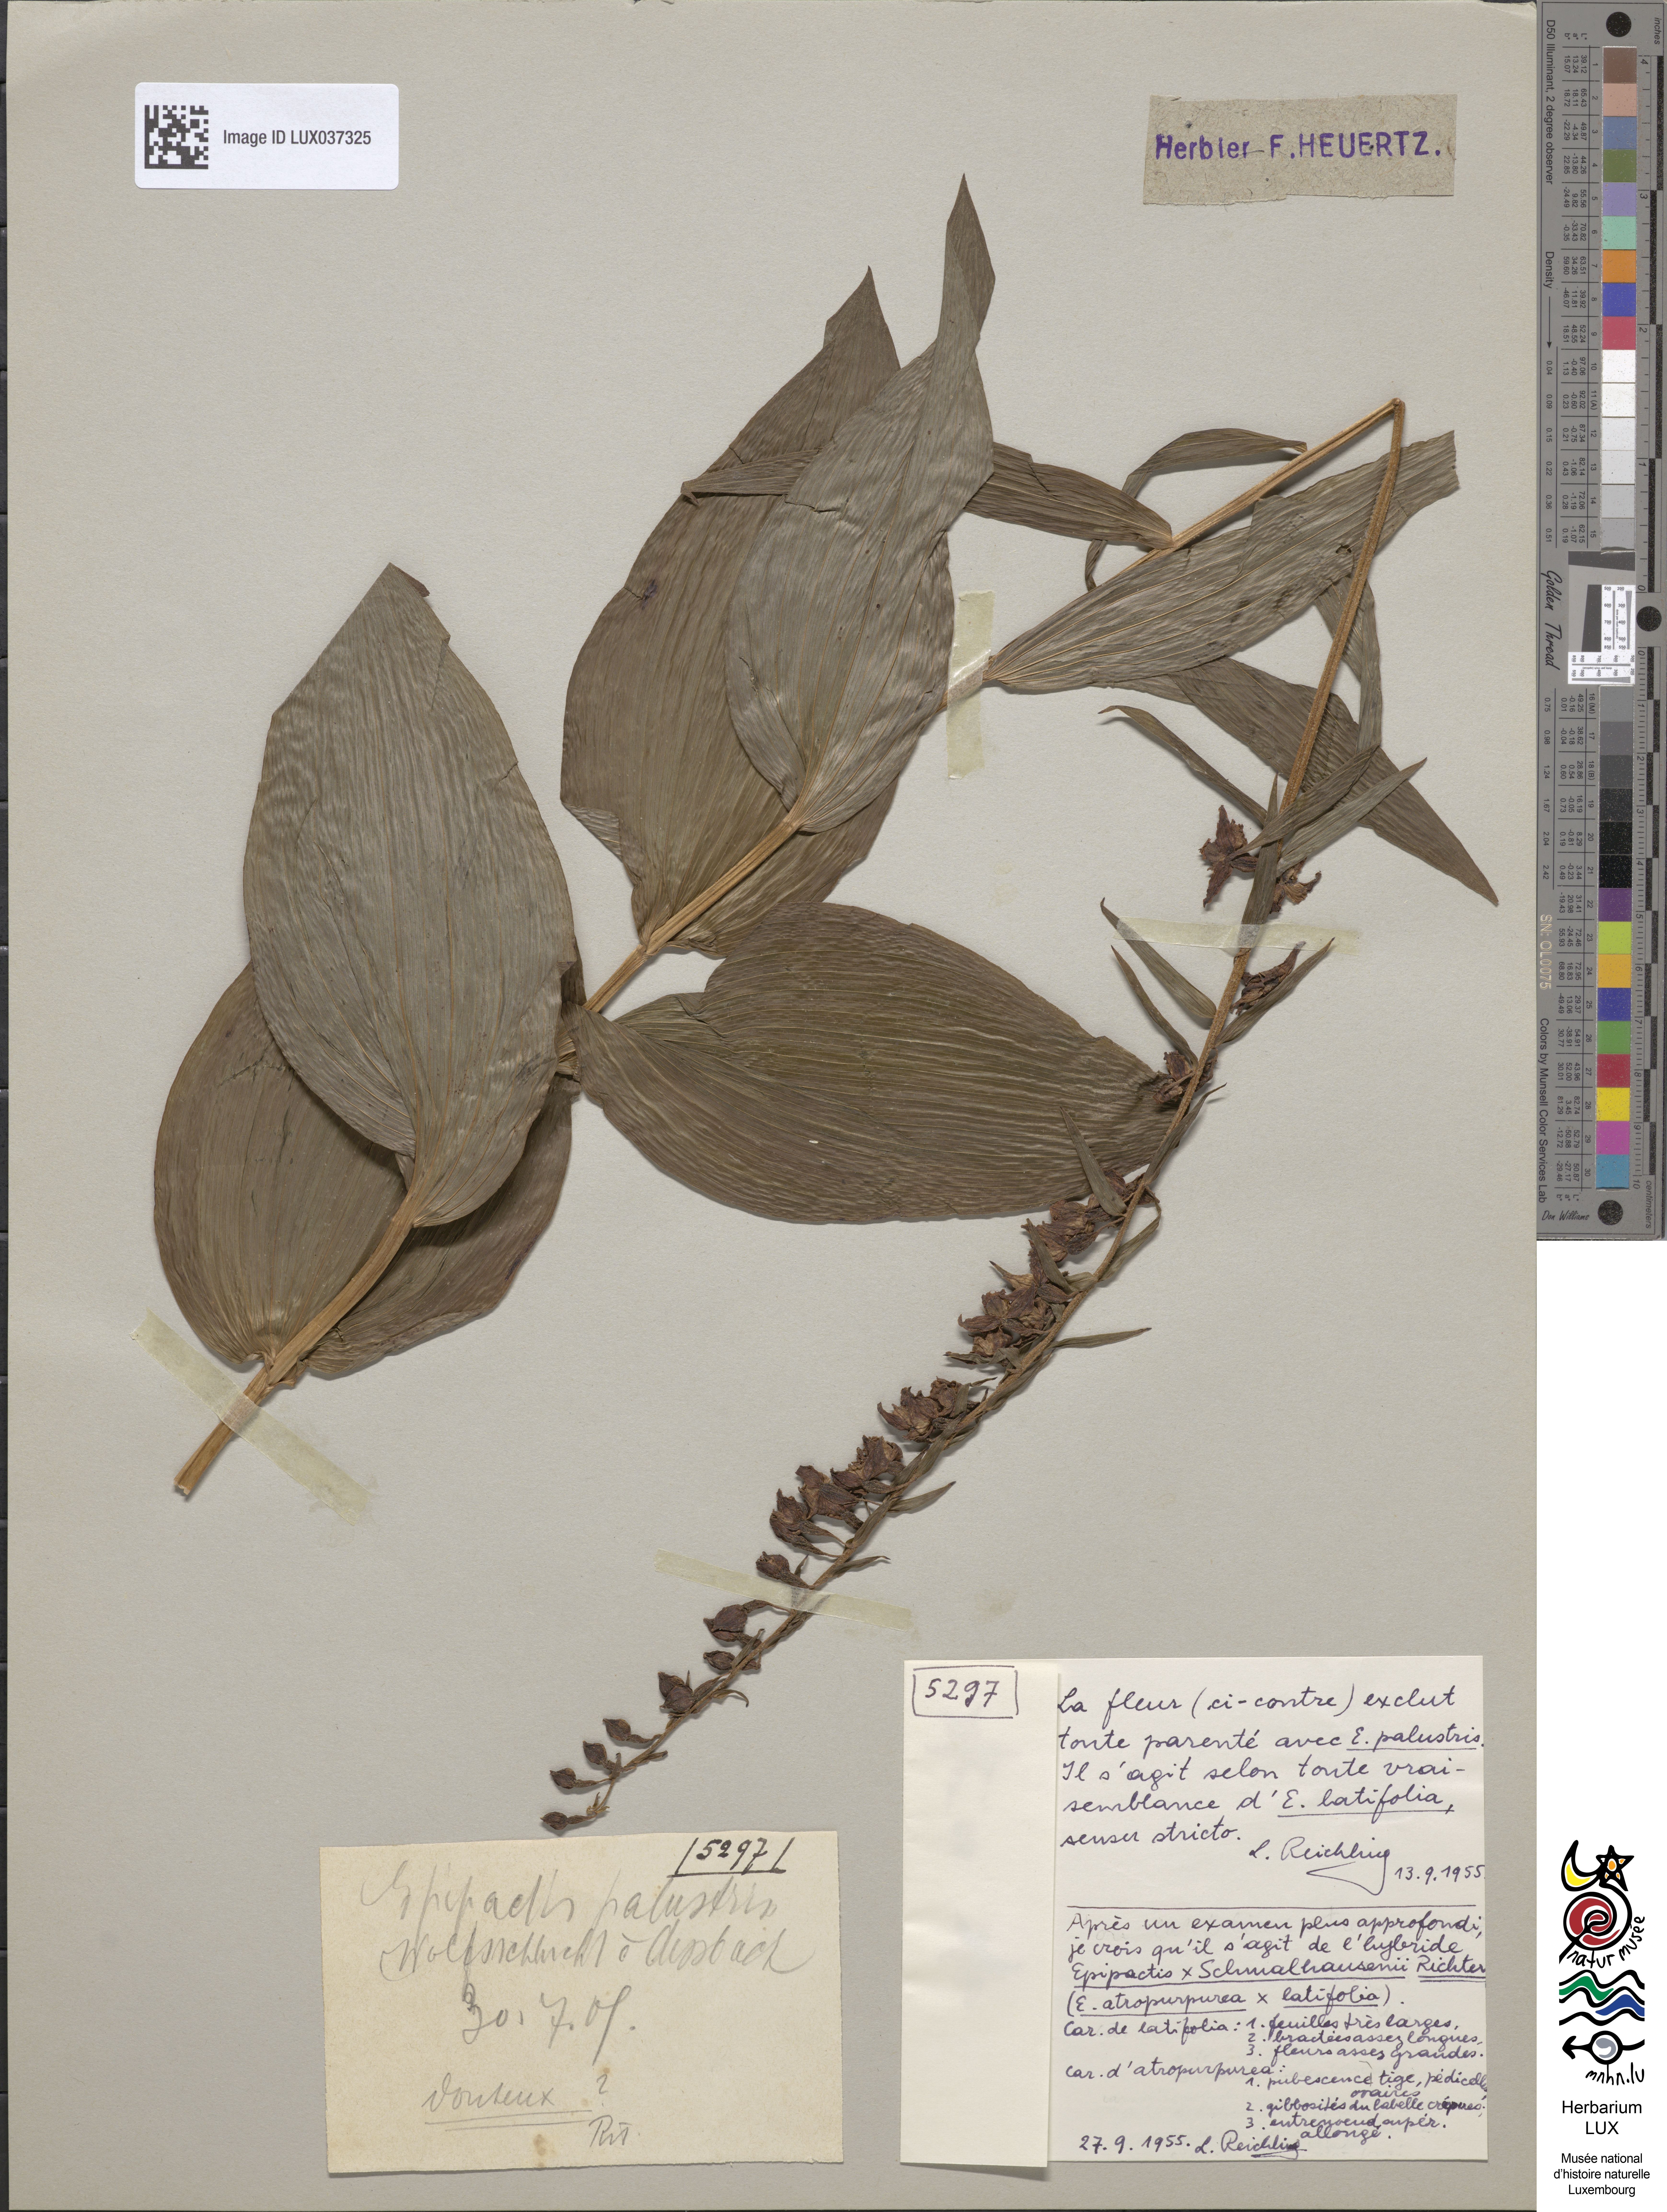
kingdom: Plantae
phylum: Tracheophyta
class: Liliopsida
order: Asparagales
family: Orchidaceae
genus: Epipactis
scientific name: Epipactis schmalhausenii
